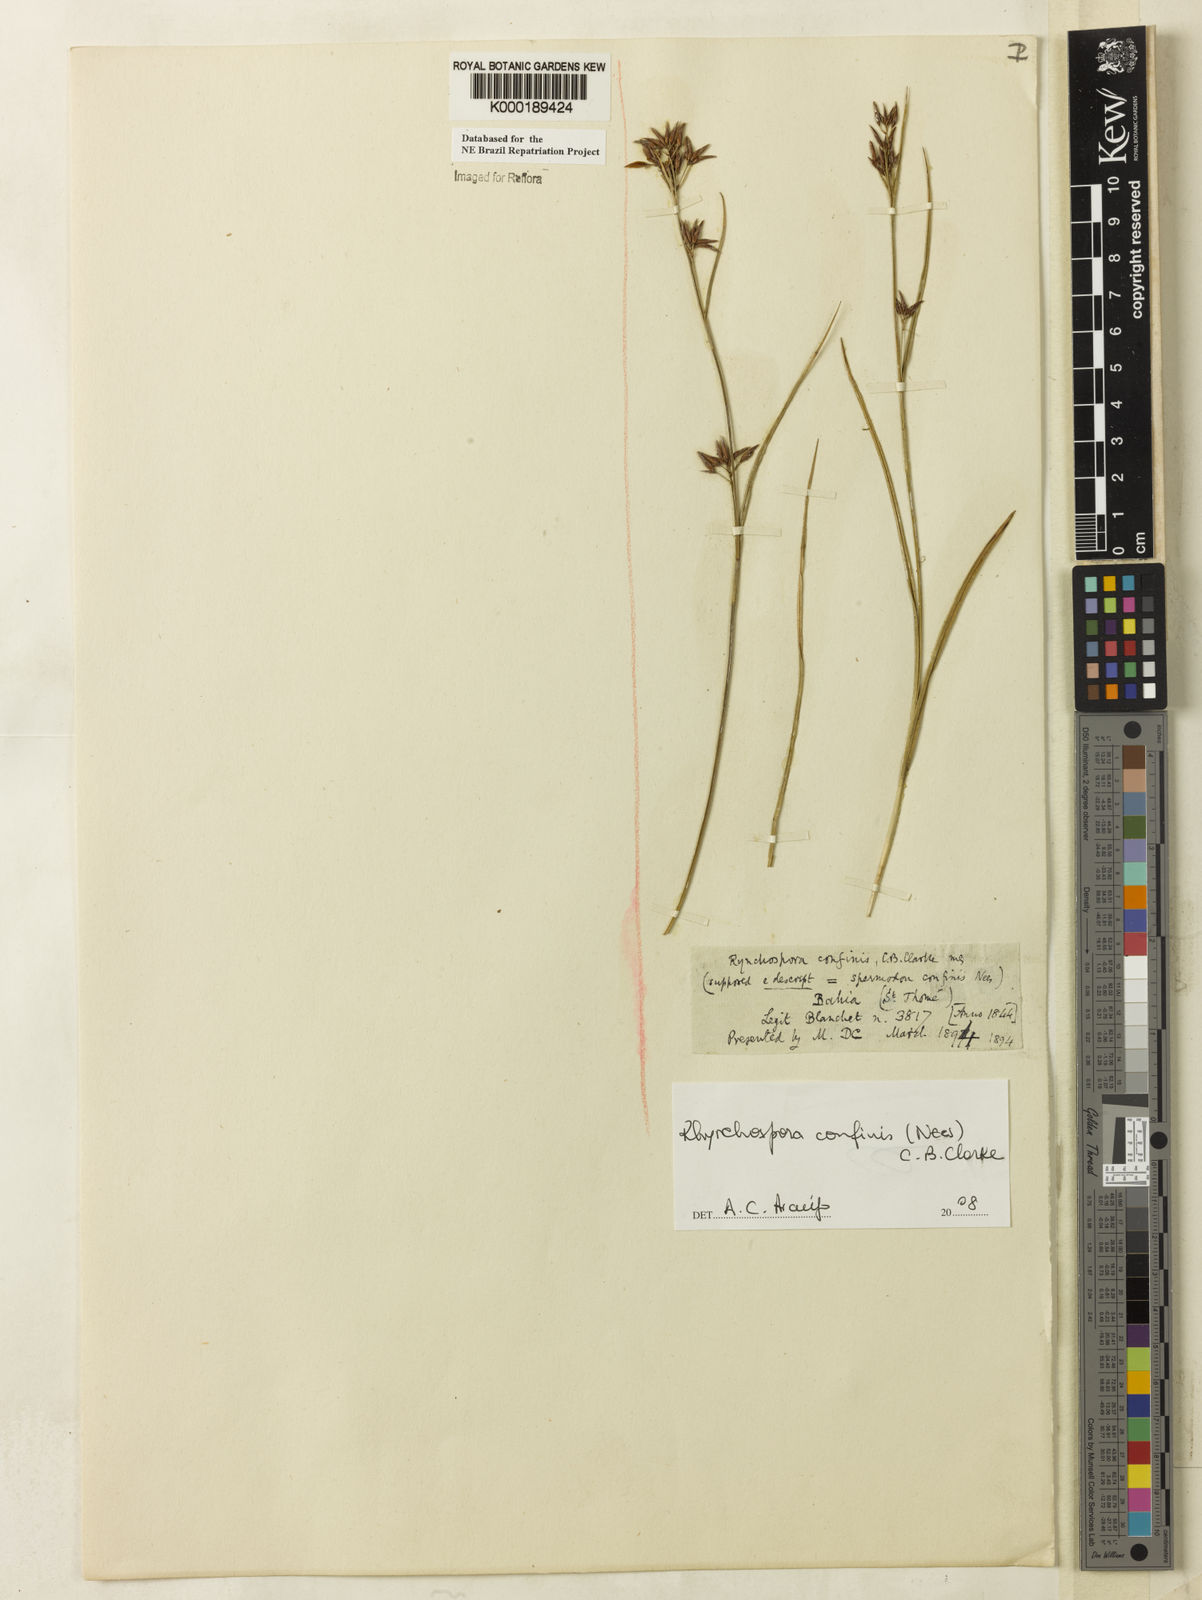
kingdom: Plantae
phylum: Tracheophyta
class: Liliopsida
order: Poales
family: Cyperaceae
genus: Rhynchospora
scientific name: Rhynchospora confinis
